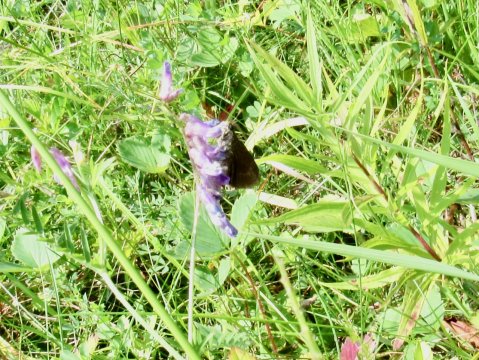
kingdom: Animalia
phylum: Arthropoda
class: Insecta
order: Lepidoptera
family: Hesperiidae
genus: Euphyes
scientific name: Euphyes vestris
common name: Dun Skipper
